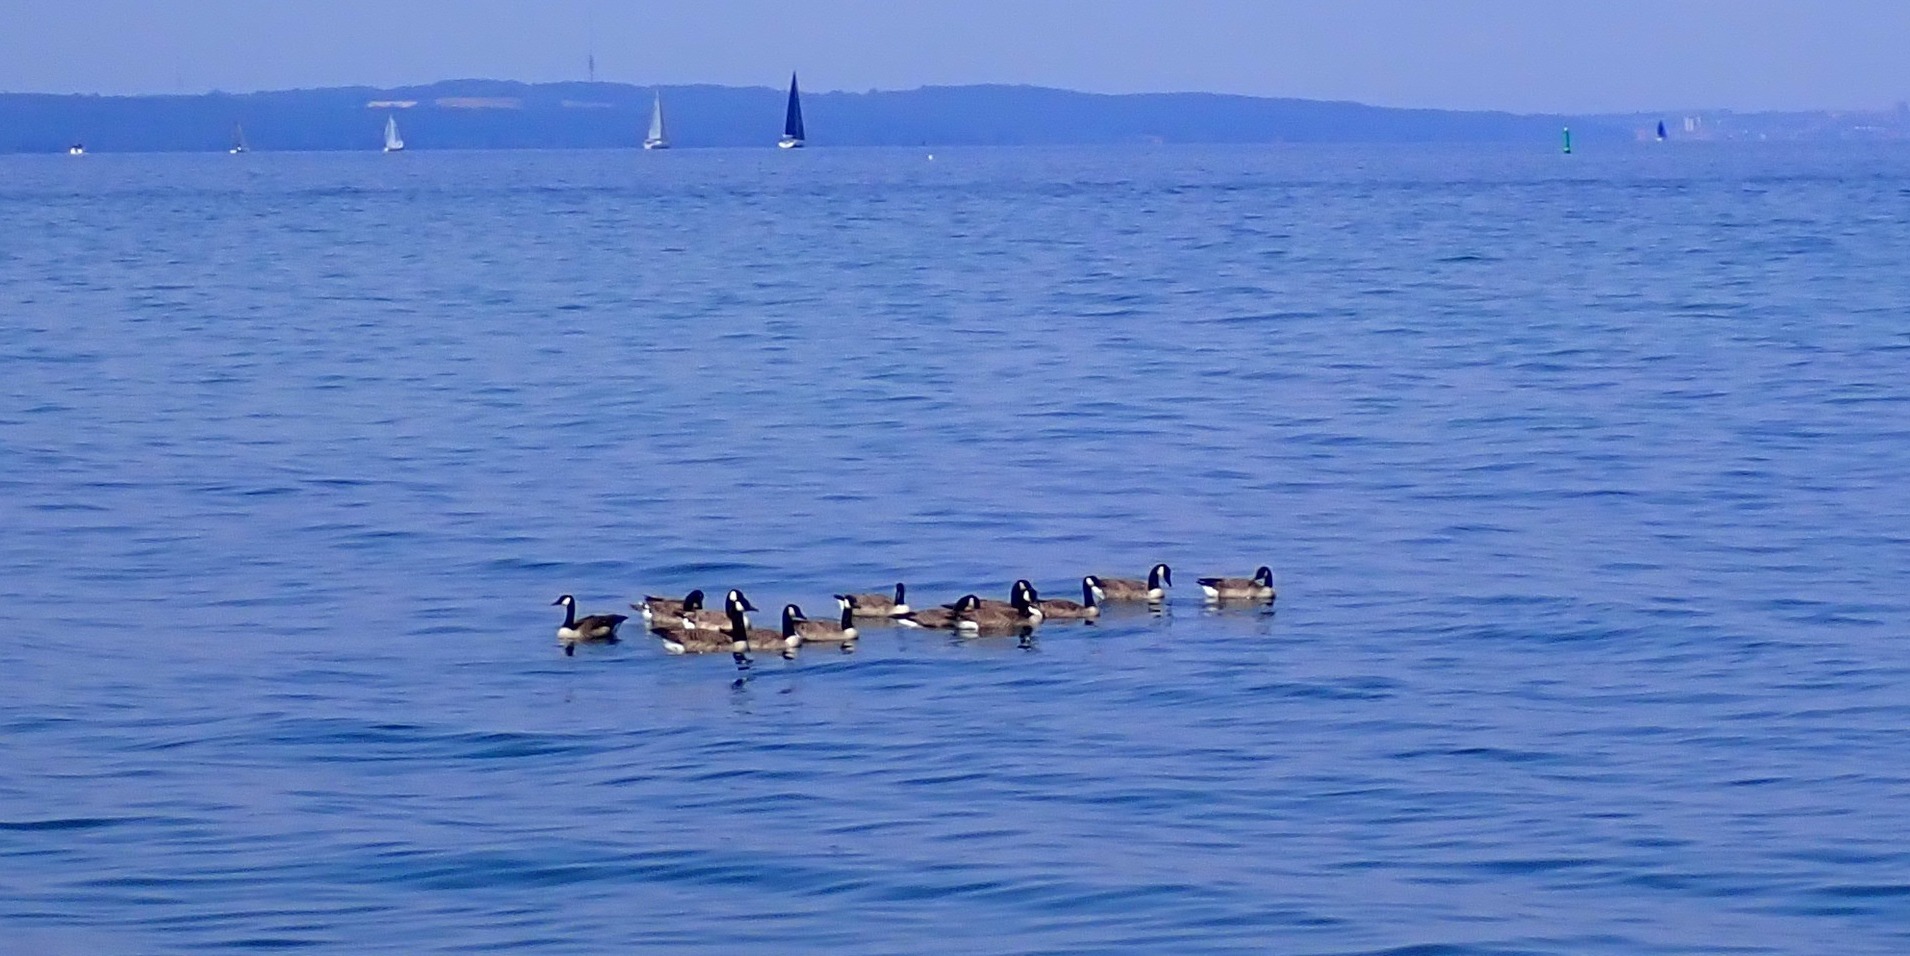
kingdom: Animalia
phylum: Chordata
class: Aves
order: Anseriformes
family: Anatidae
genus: Branta
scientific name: Branta canadensis
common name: Canadagås
